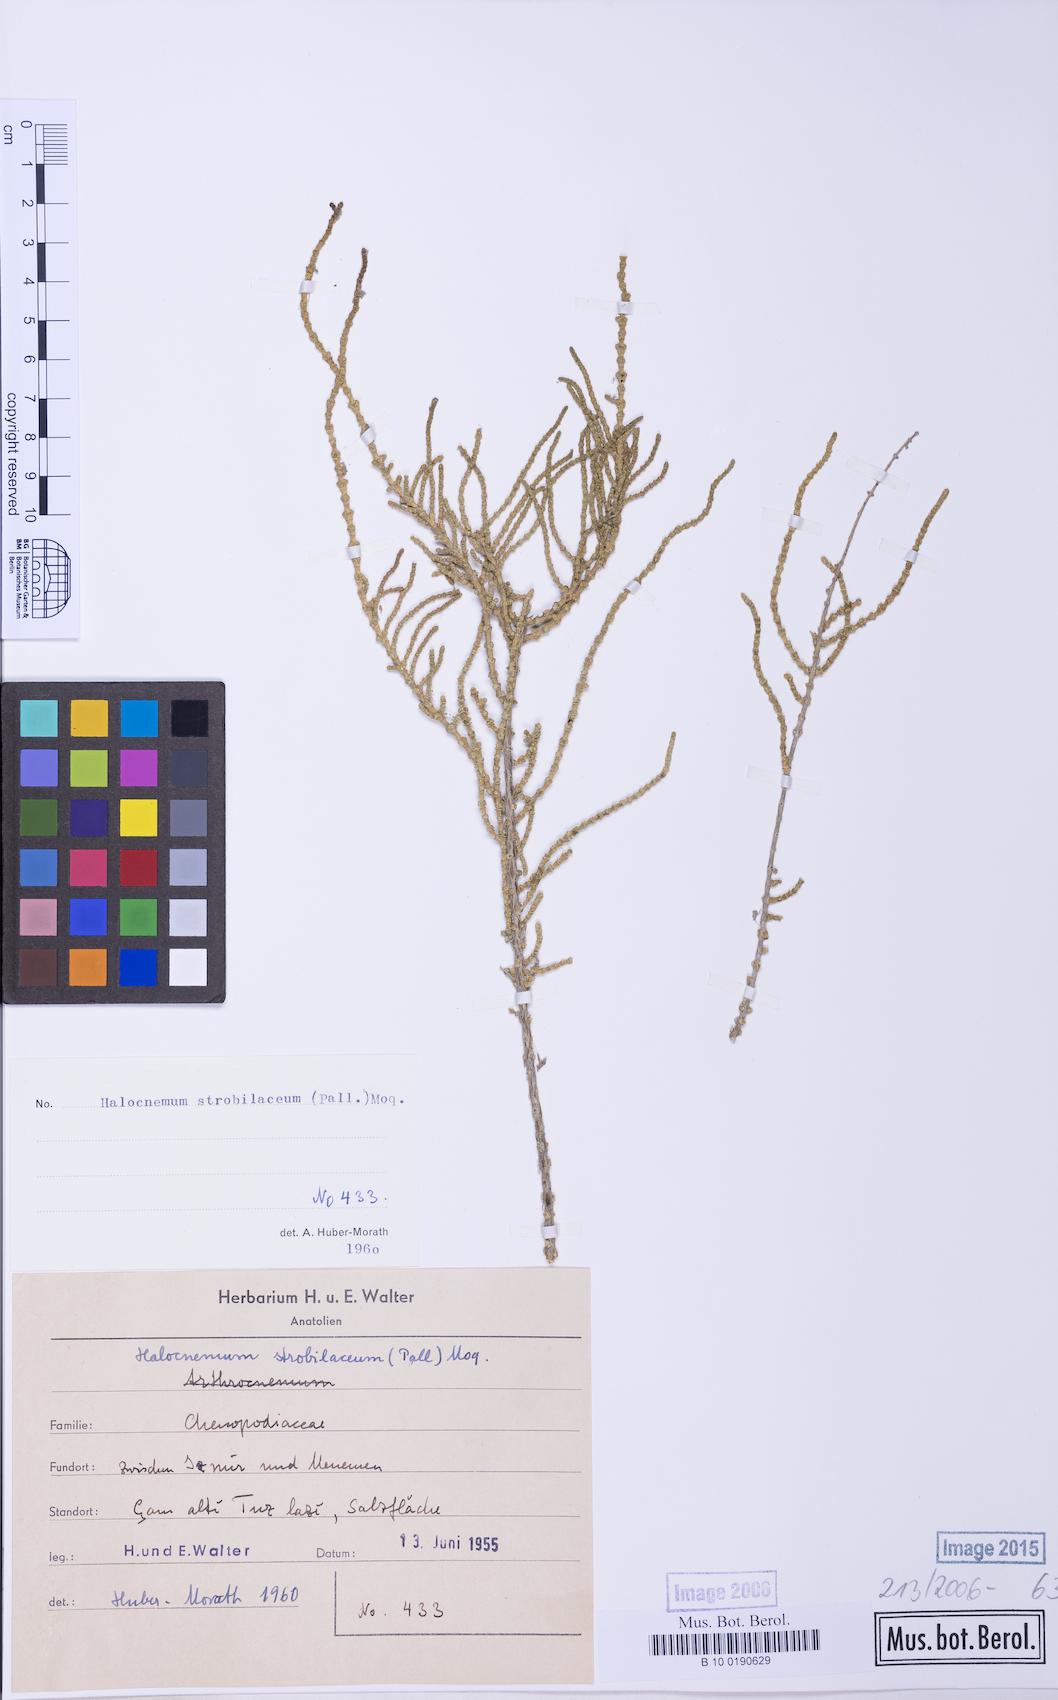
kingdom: Plantae
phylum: Tracheophyta
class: Magnoliopsida
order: Caryophyllales
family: Amaranthaceae
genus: Halocnemum
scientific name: Halocnemum strobilaceum
